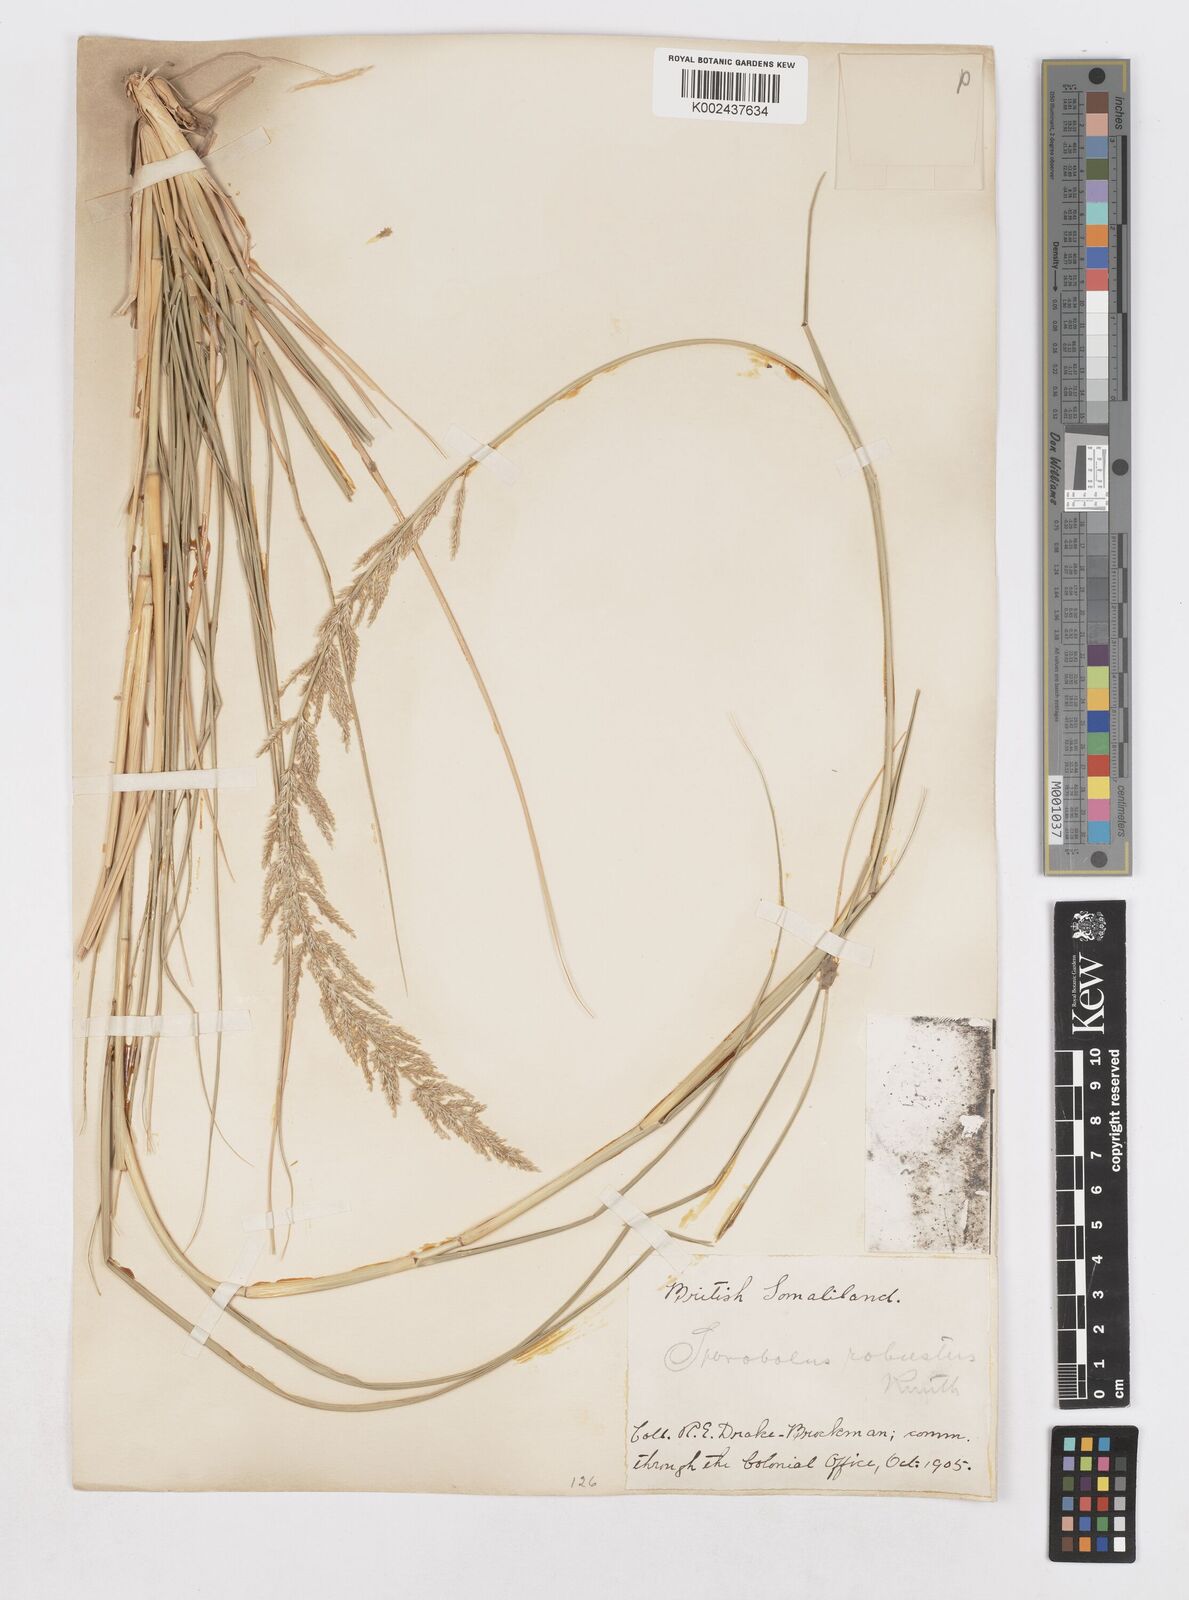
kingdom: Plantae
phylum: Tracheophyta
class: Liliopsida
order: Poales
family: Poaceae
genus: Sporobolus
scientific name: Sporobolus consimilis
